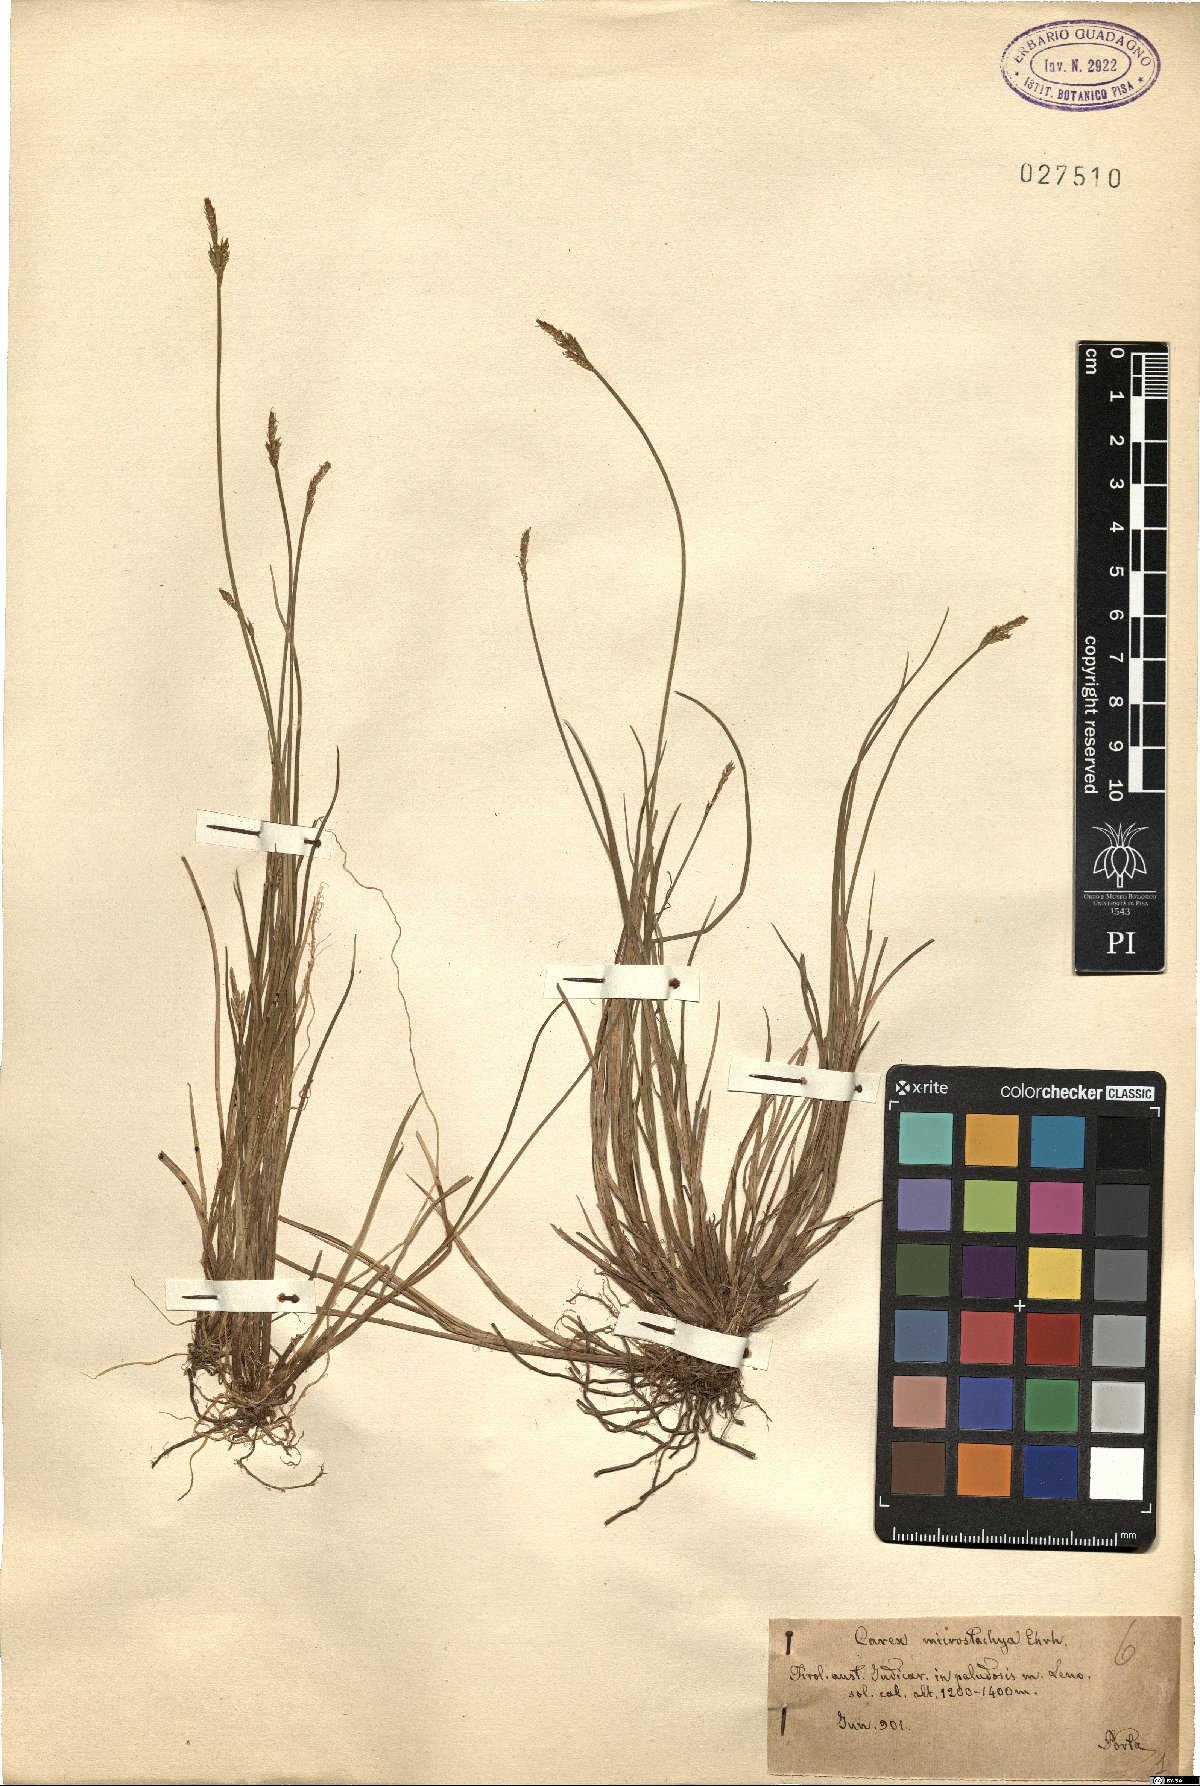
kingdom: Plantae
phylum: Tracheophyta
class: Liliopsida
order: Poales
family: Cyperaceae
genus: Carex
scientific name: Carex microstachya
